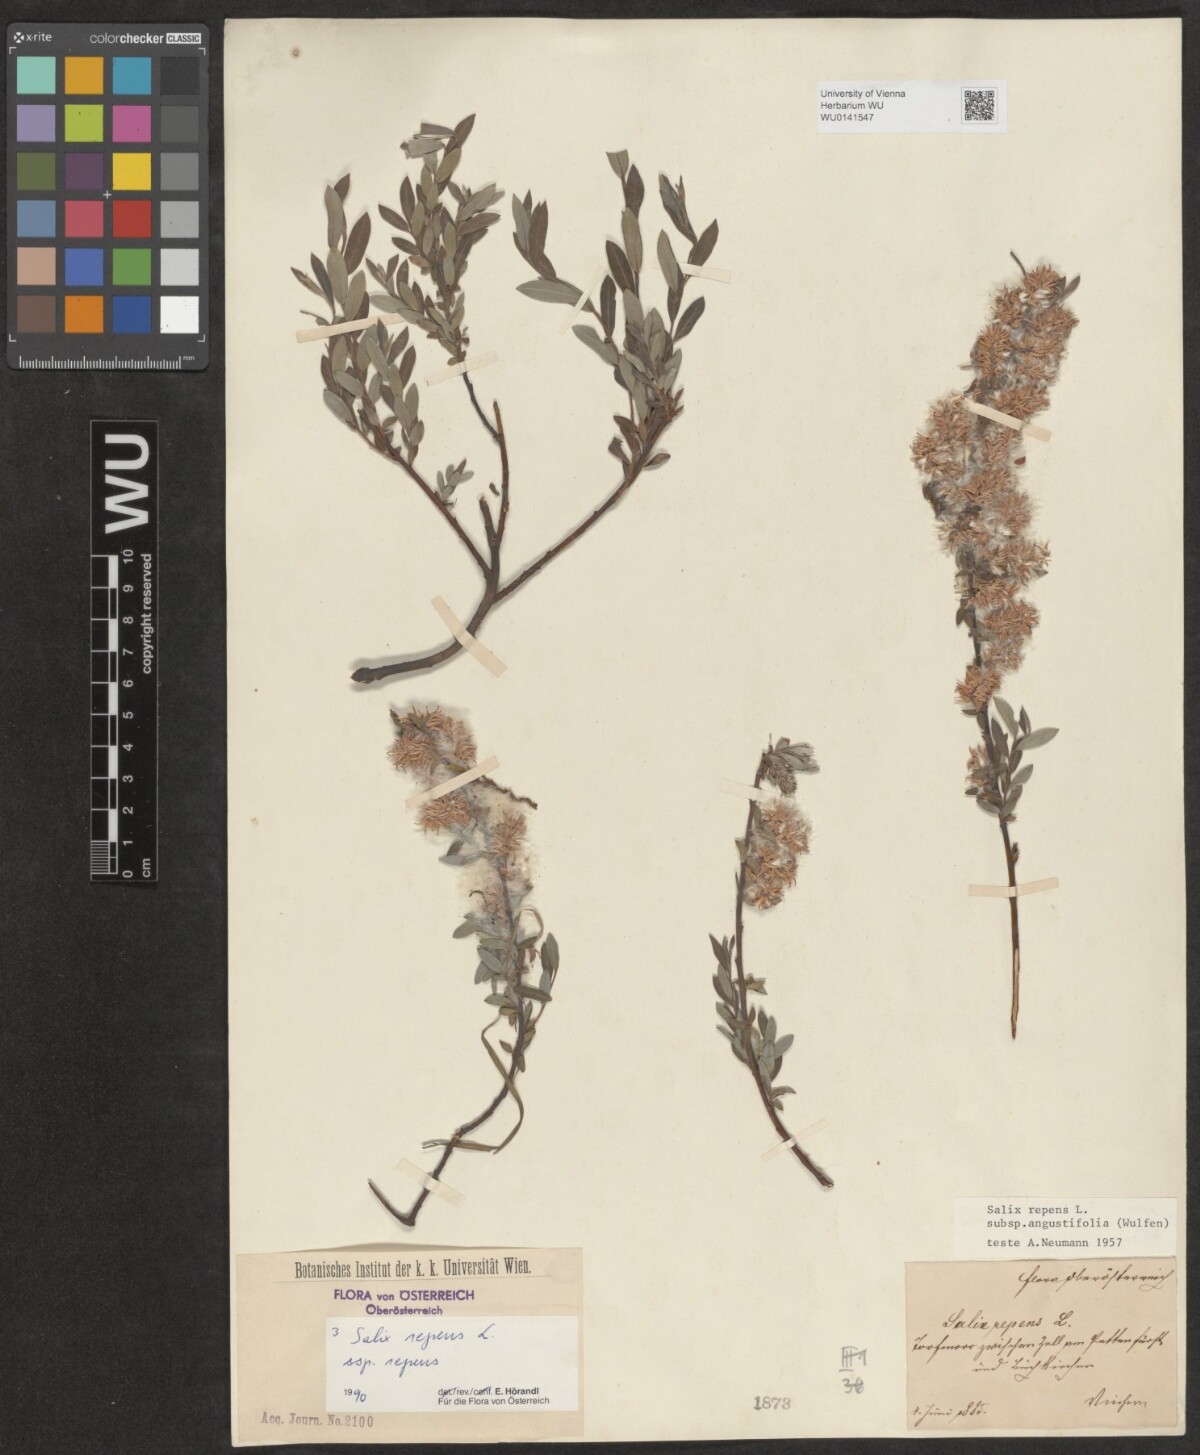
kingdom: Plantae
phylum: Tracheophyta
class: Magnoliopsida
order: Malpighiales
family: Salicaceae
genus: Salix
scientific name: Salix repens
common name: Creeping willow
